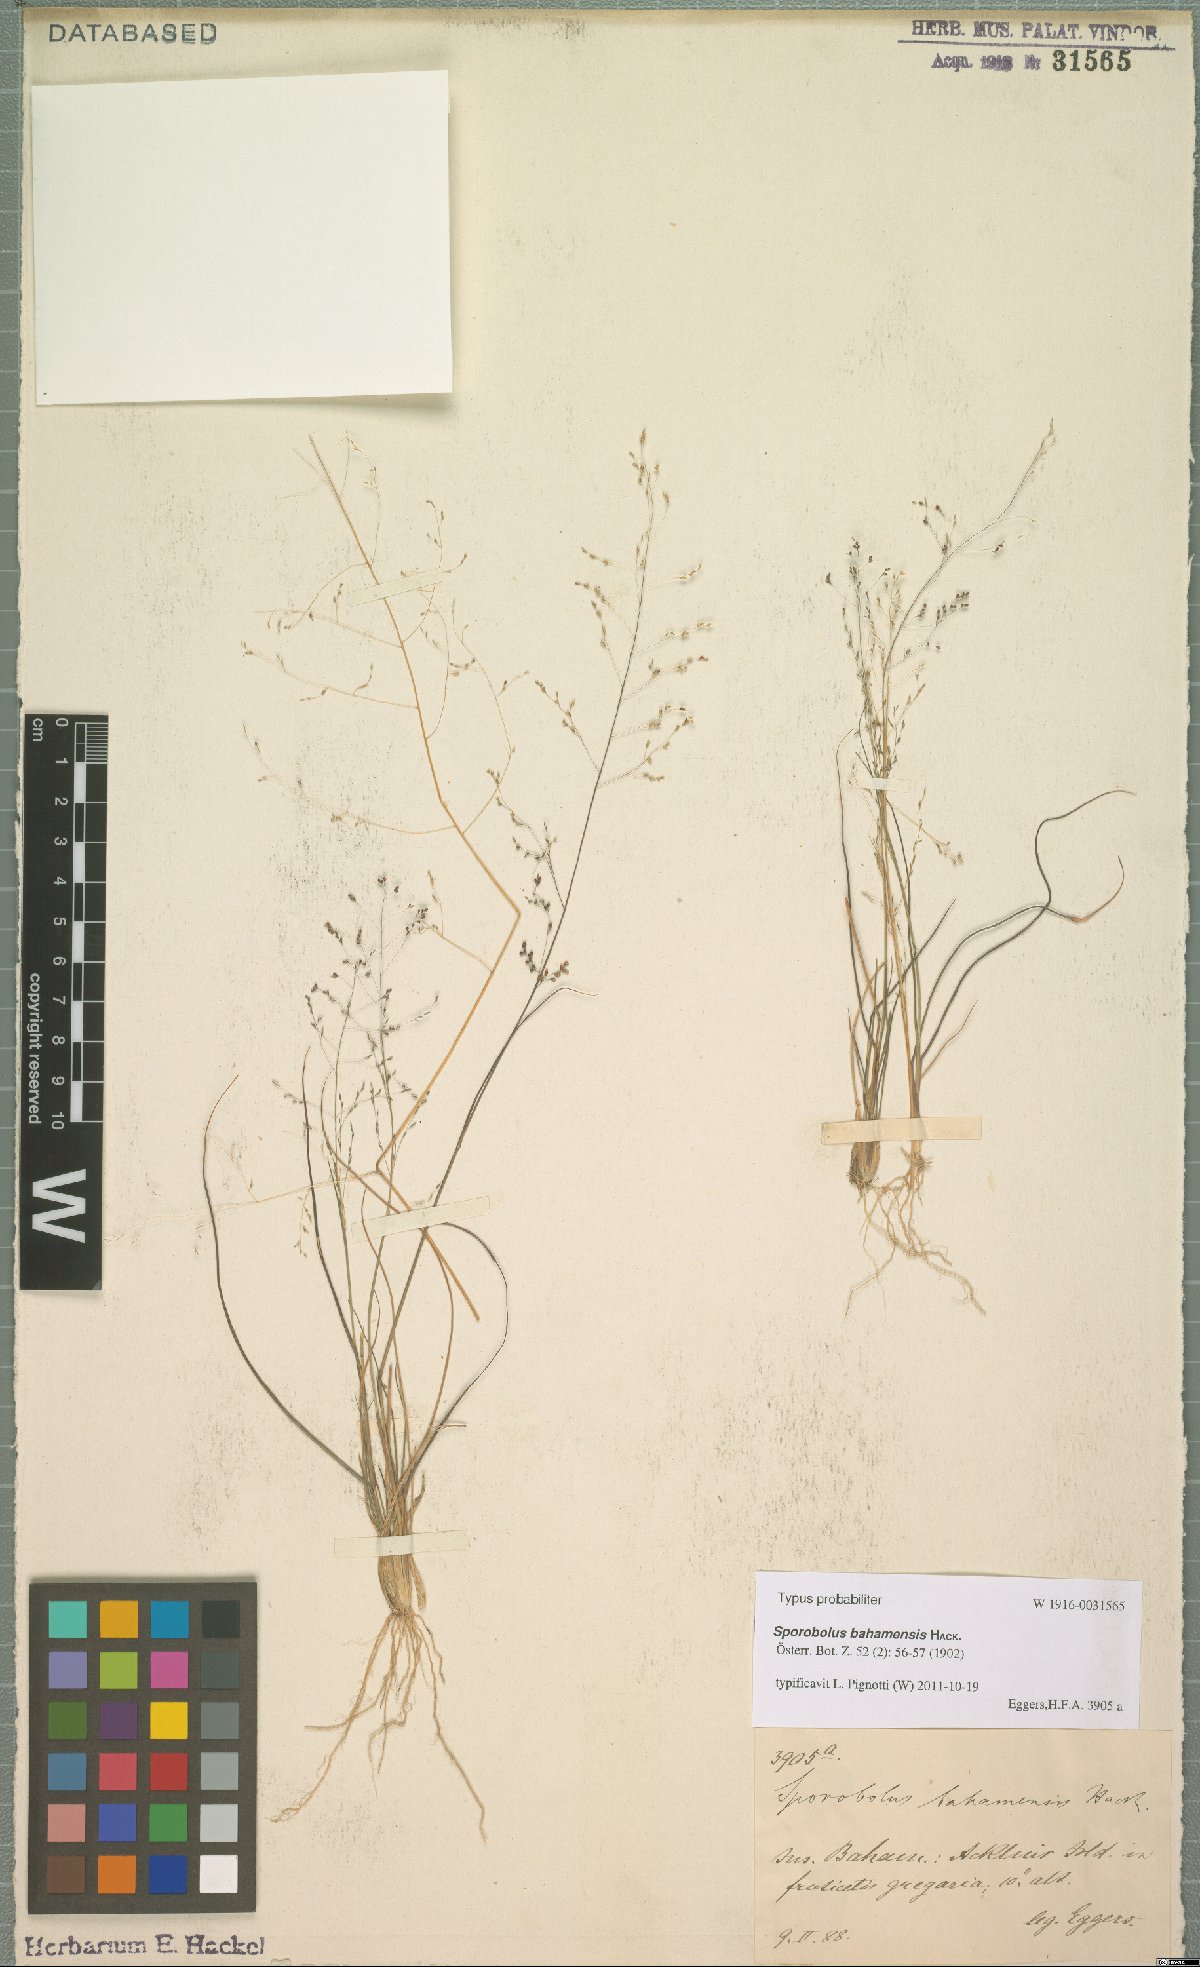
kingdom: Plantae
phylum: Tracheophyta
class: Liliopsida
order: Poales
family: Poaceae
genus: Sporobolus
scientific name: Sporobolus bahamensis
